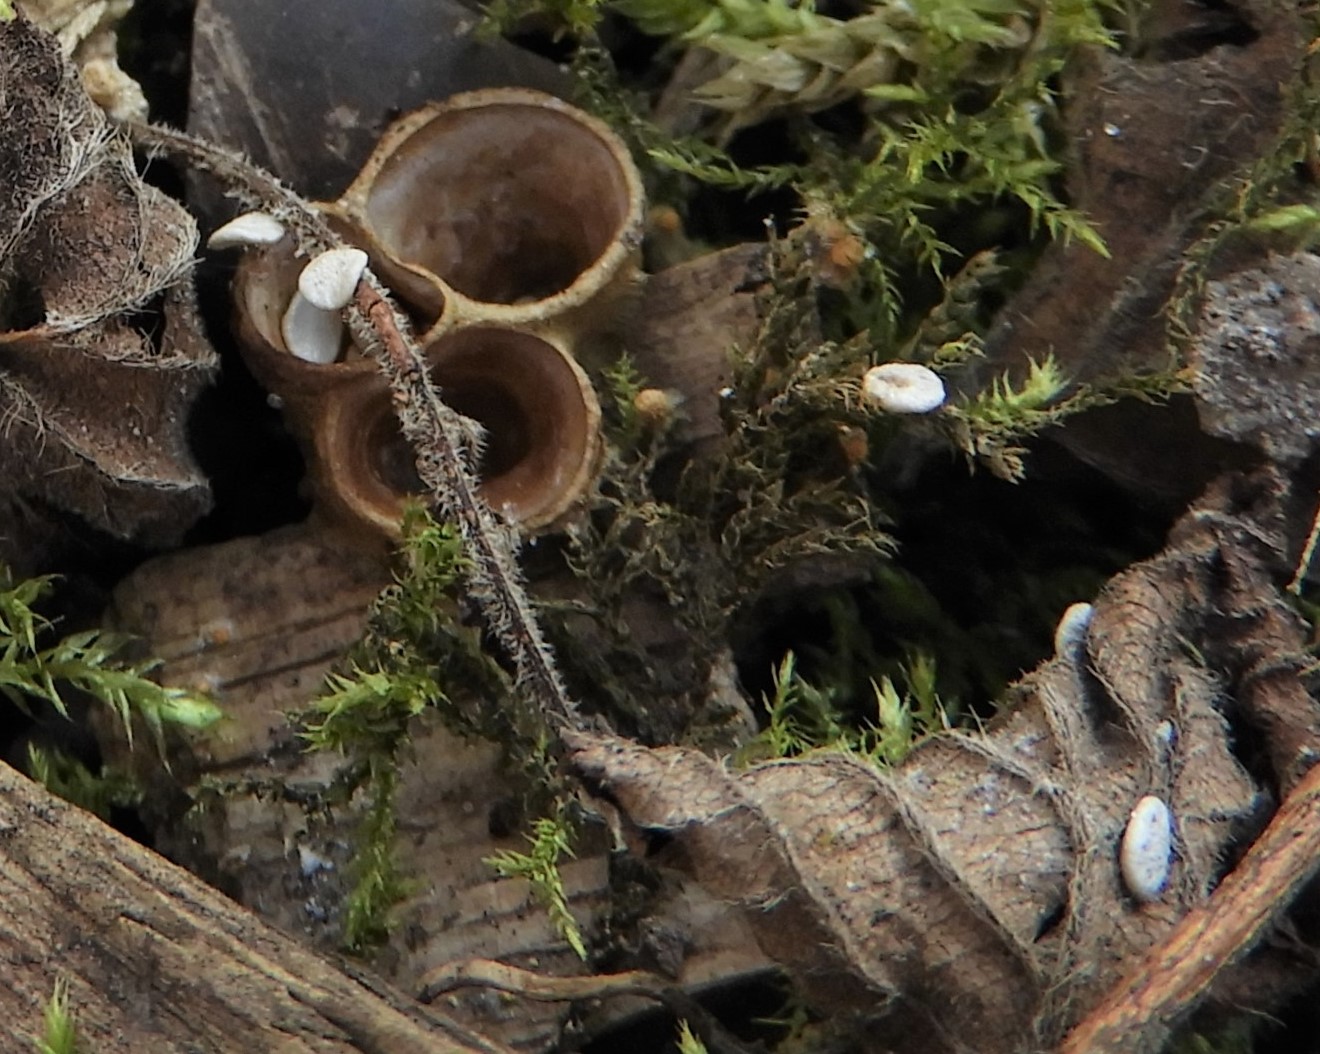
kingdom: Fungi
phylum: Basidiomycota
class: Agaricomycetes
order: Agaricales
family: Nidulariaceae
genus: Crucibulum
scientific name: Crucibulum crucibuliforme
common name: krukkesvamp
